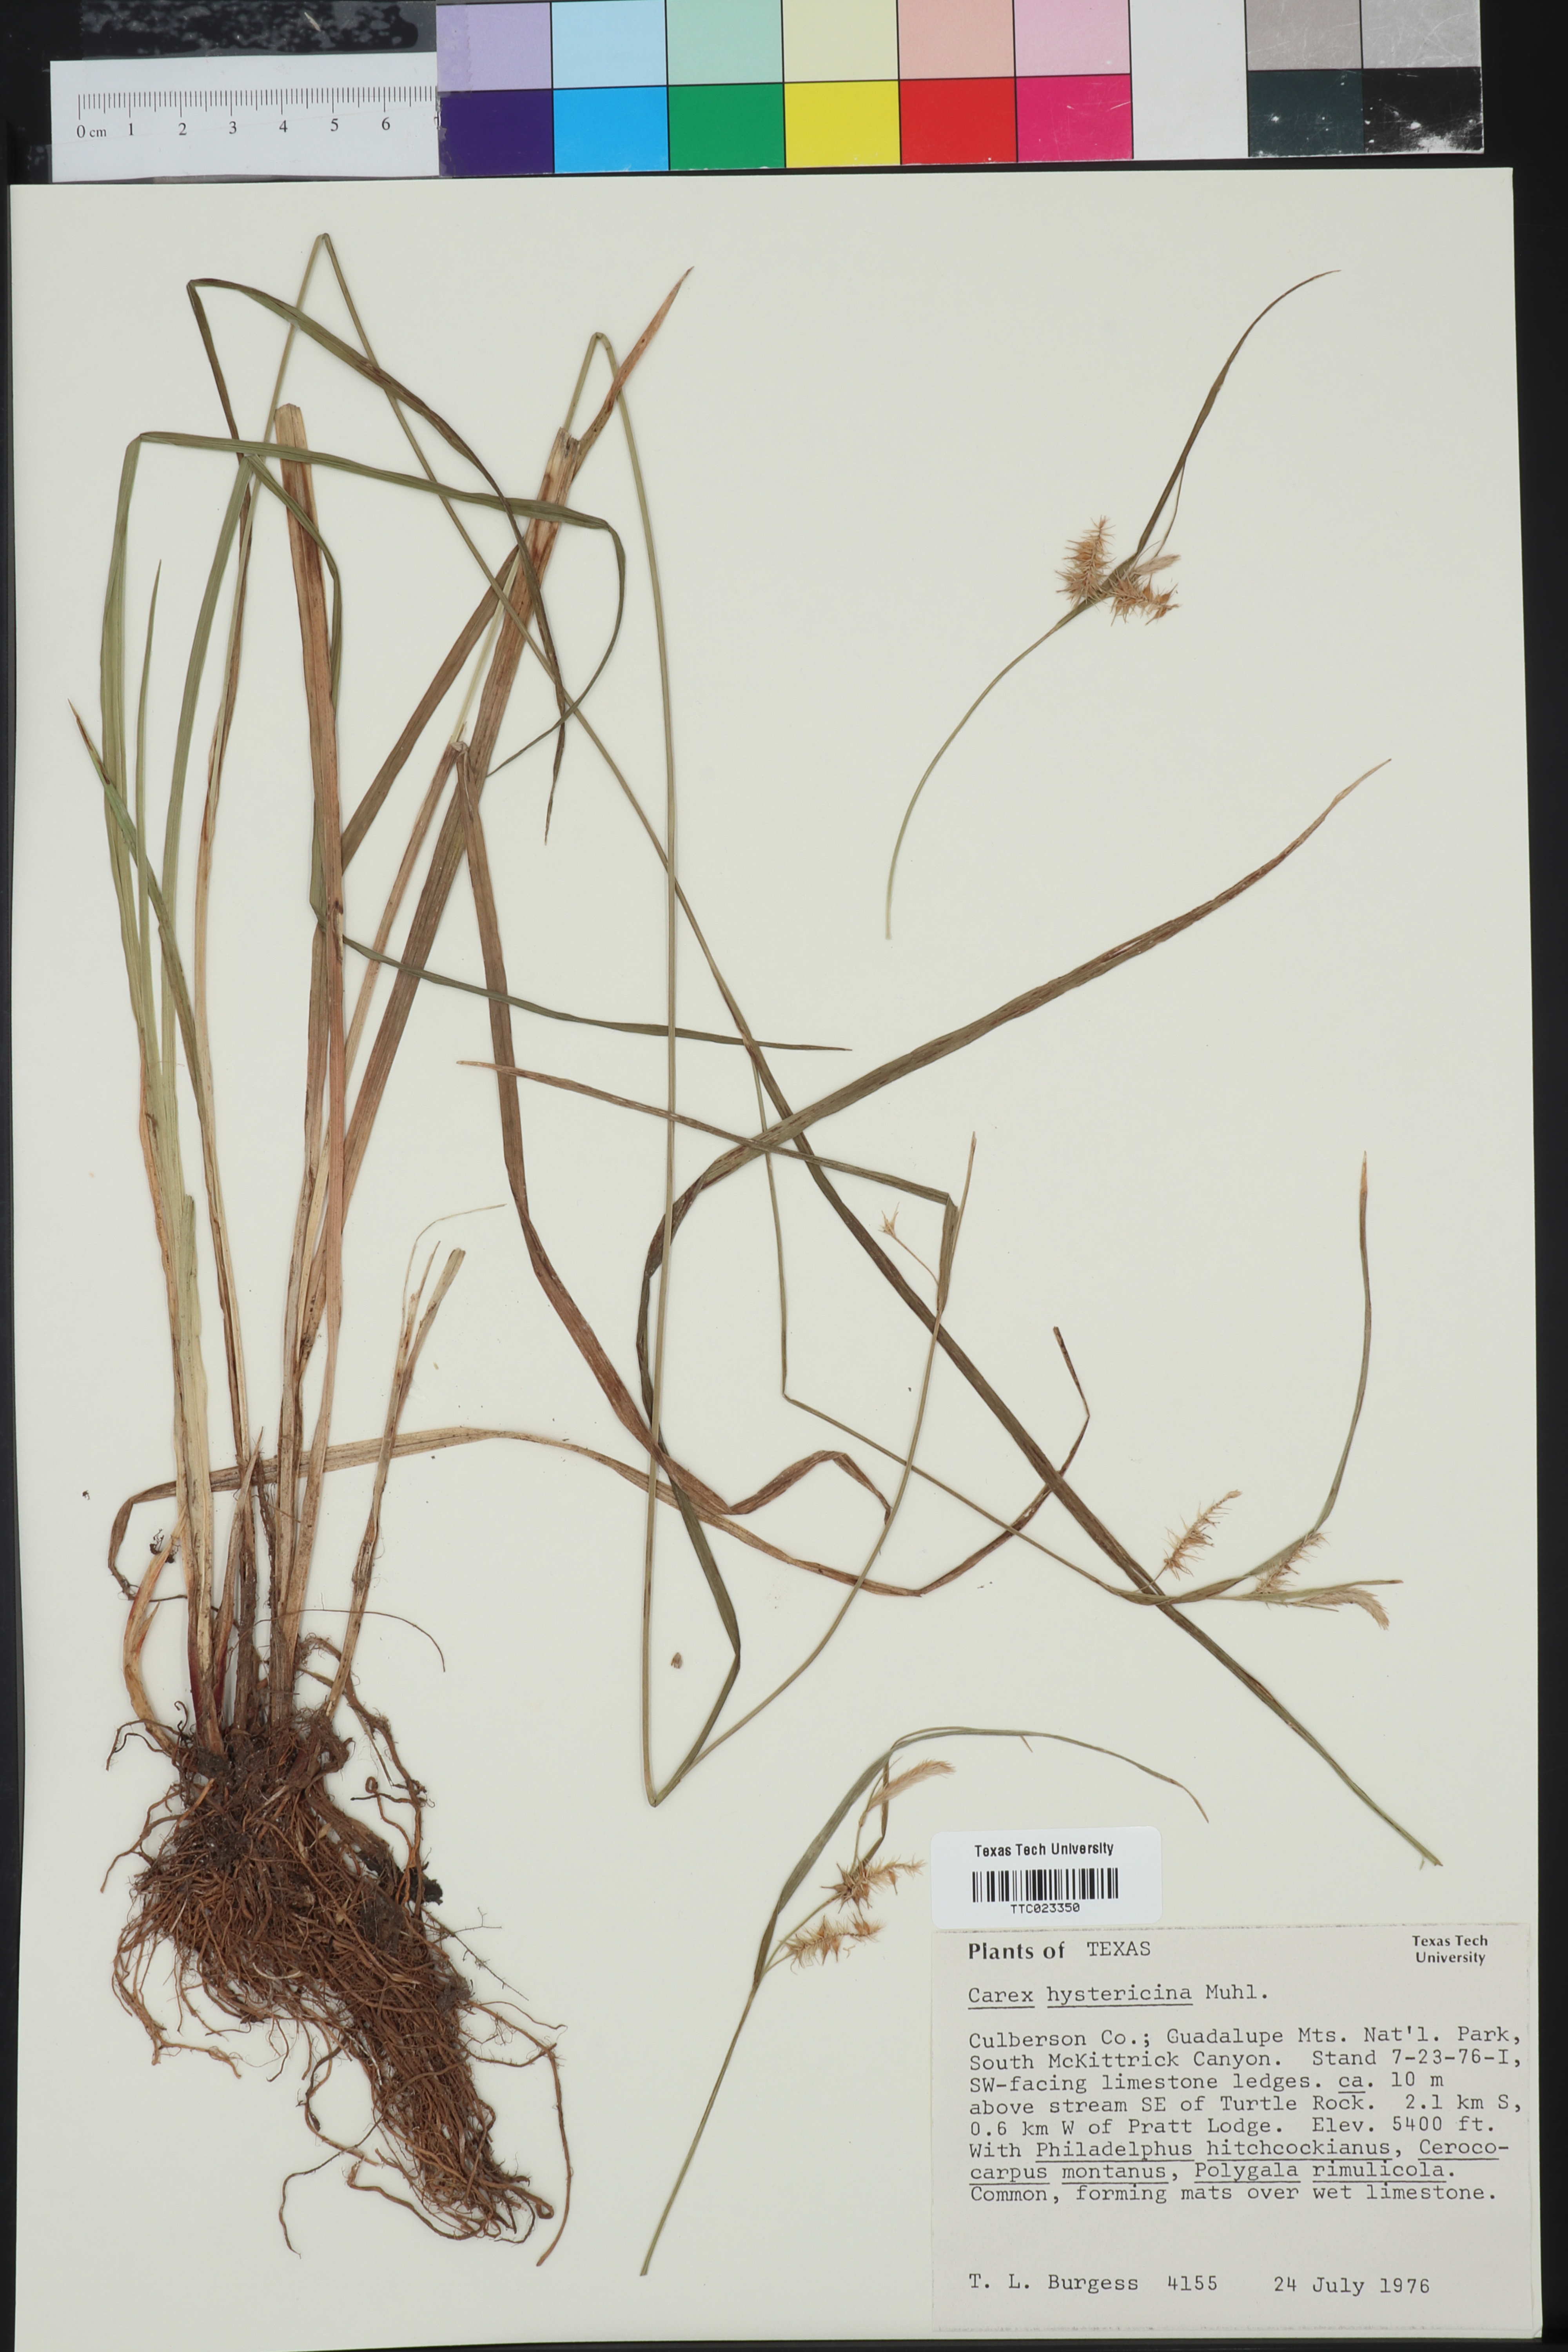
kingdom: Plantae
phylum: Tracheophyta
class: Liliopsida
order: Poales
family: Cyperaceae
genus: Carex
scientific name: Carex hystericina
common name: Bottlebrush sedge
